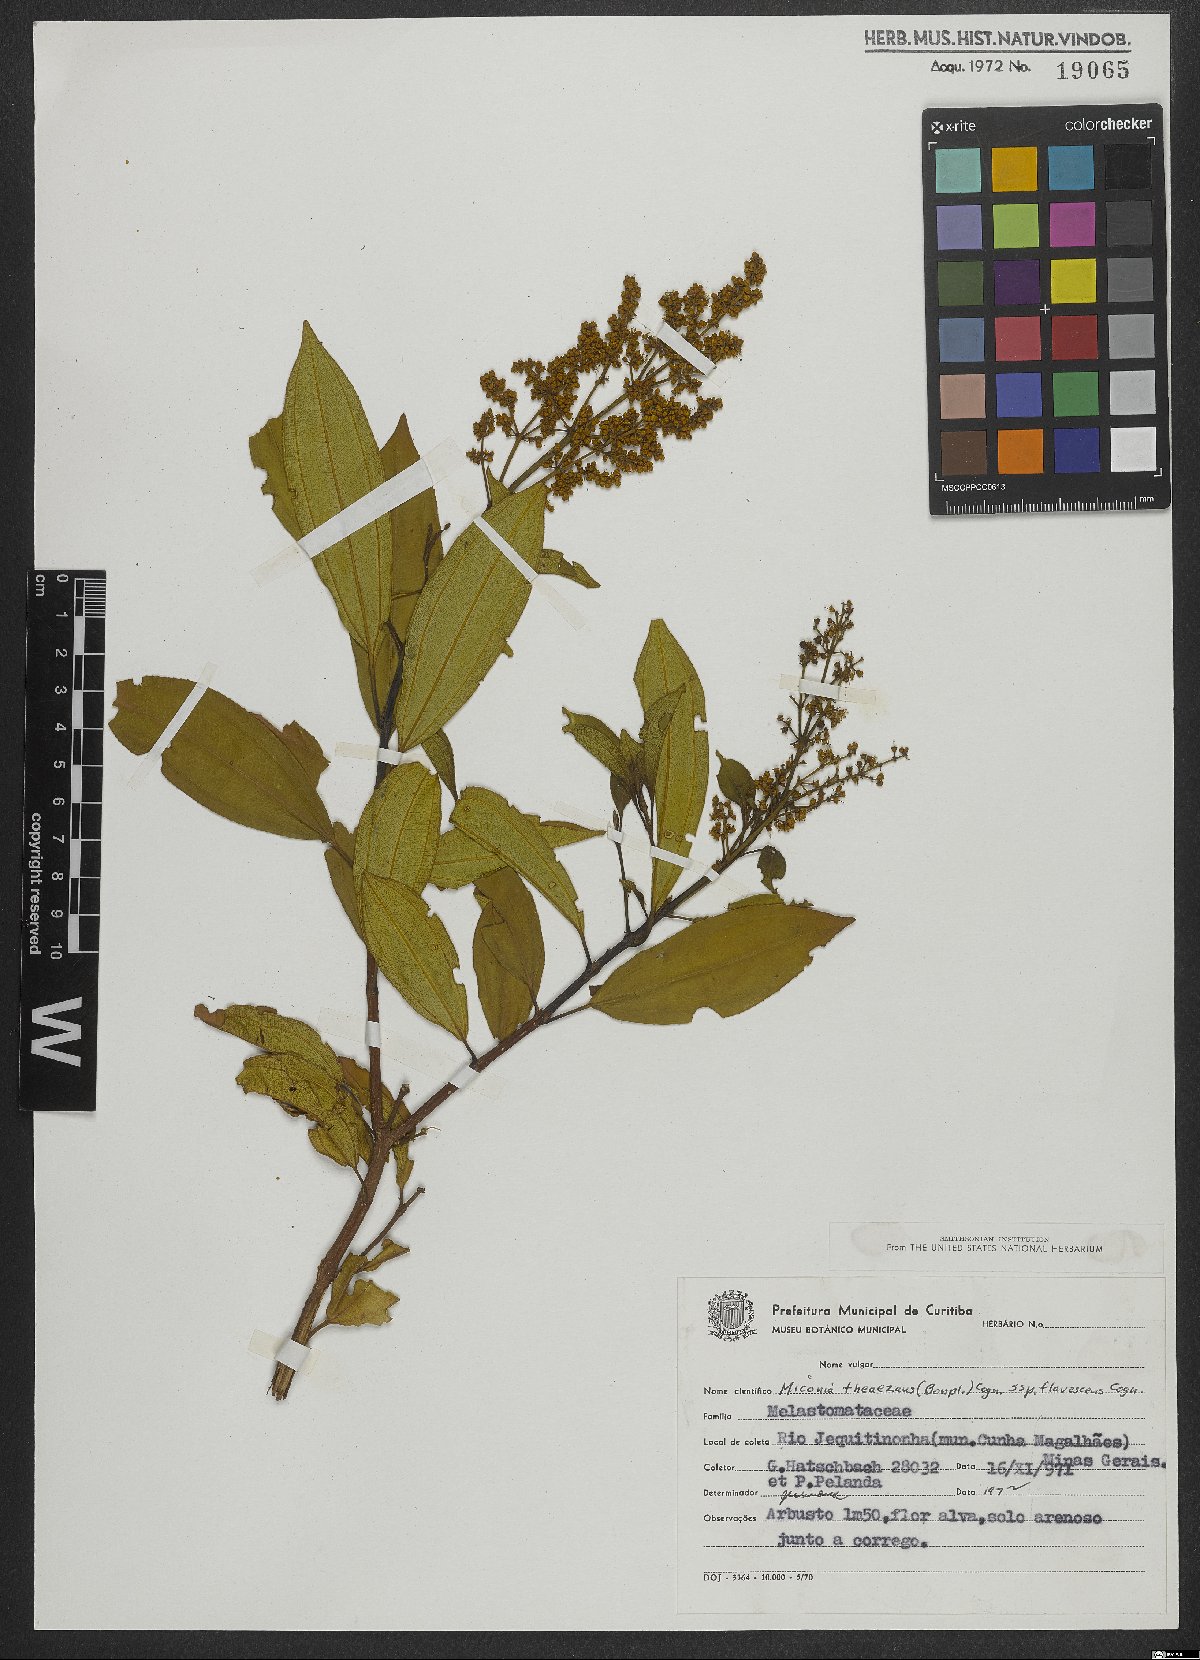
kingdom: Plantae
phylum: Tracheophyta
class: Magnoliopsida
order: Myrtales
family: Melastomataceae
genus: Miconia
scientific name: Miconia theizans
